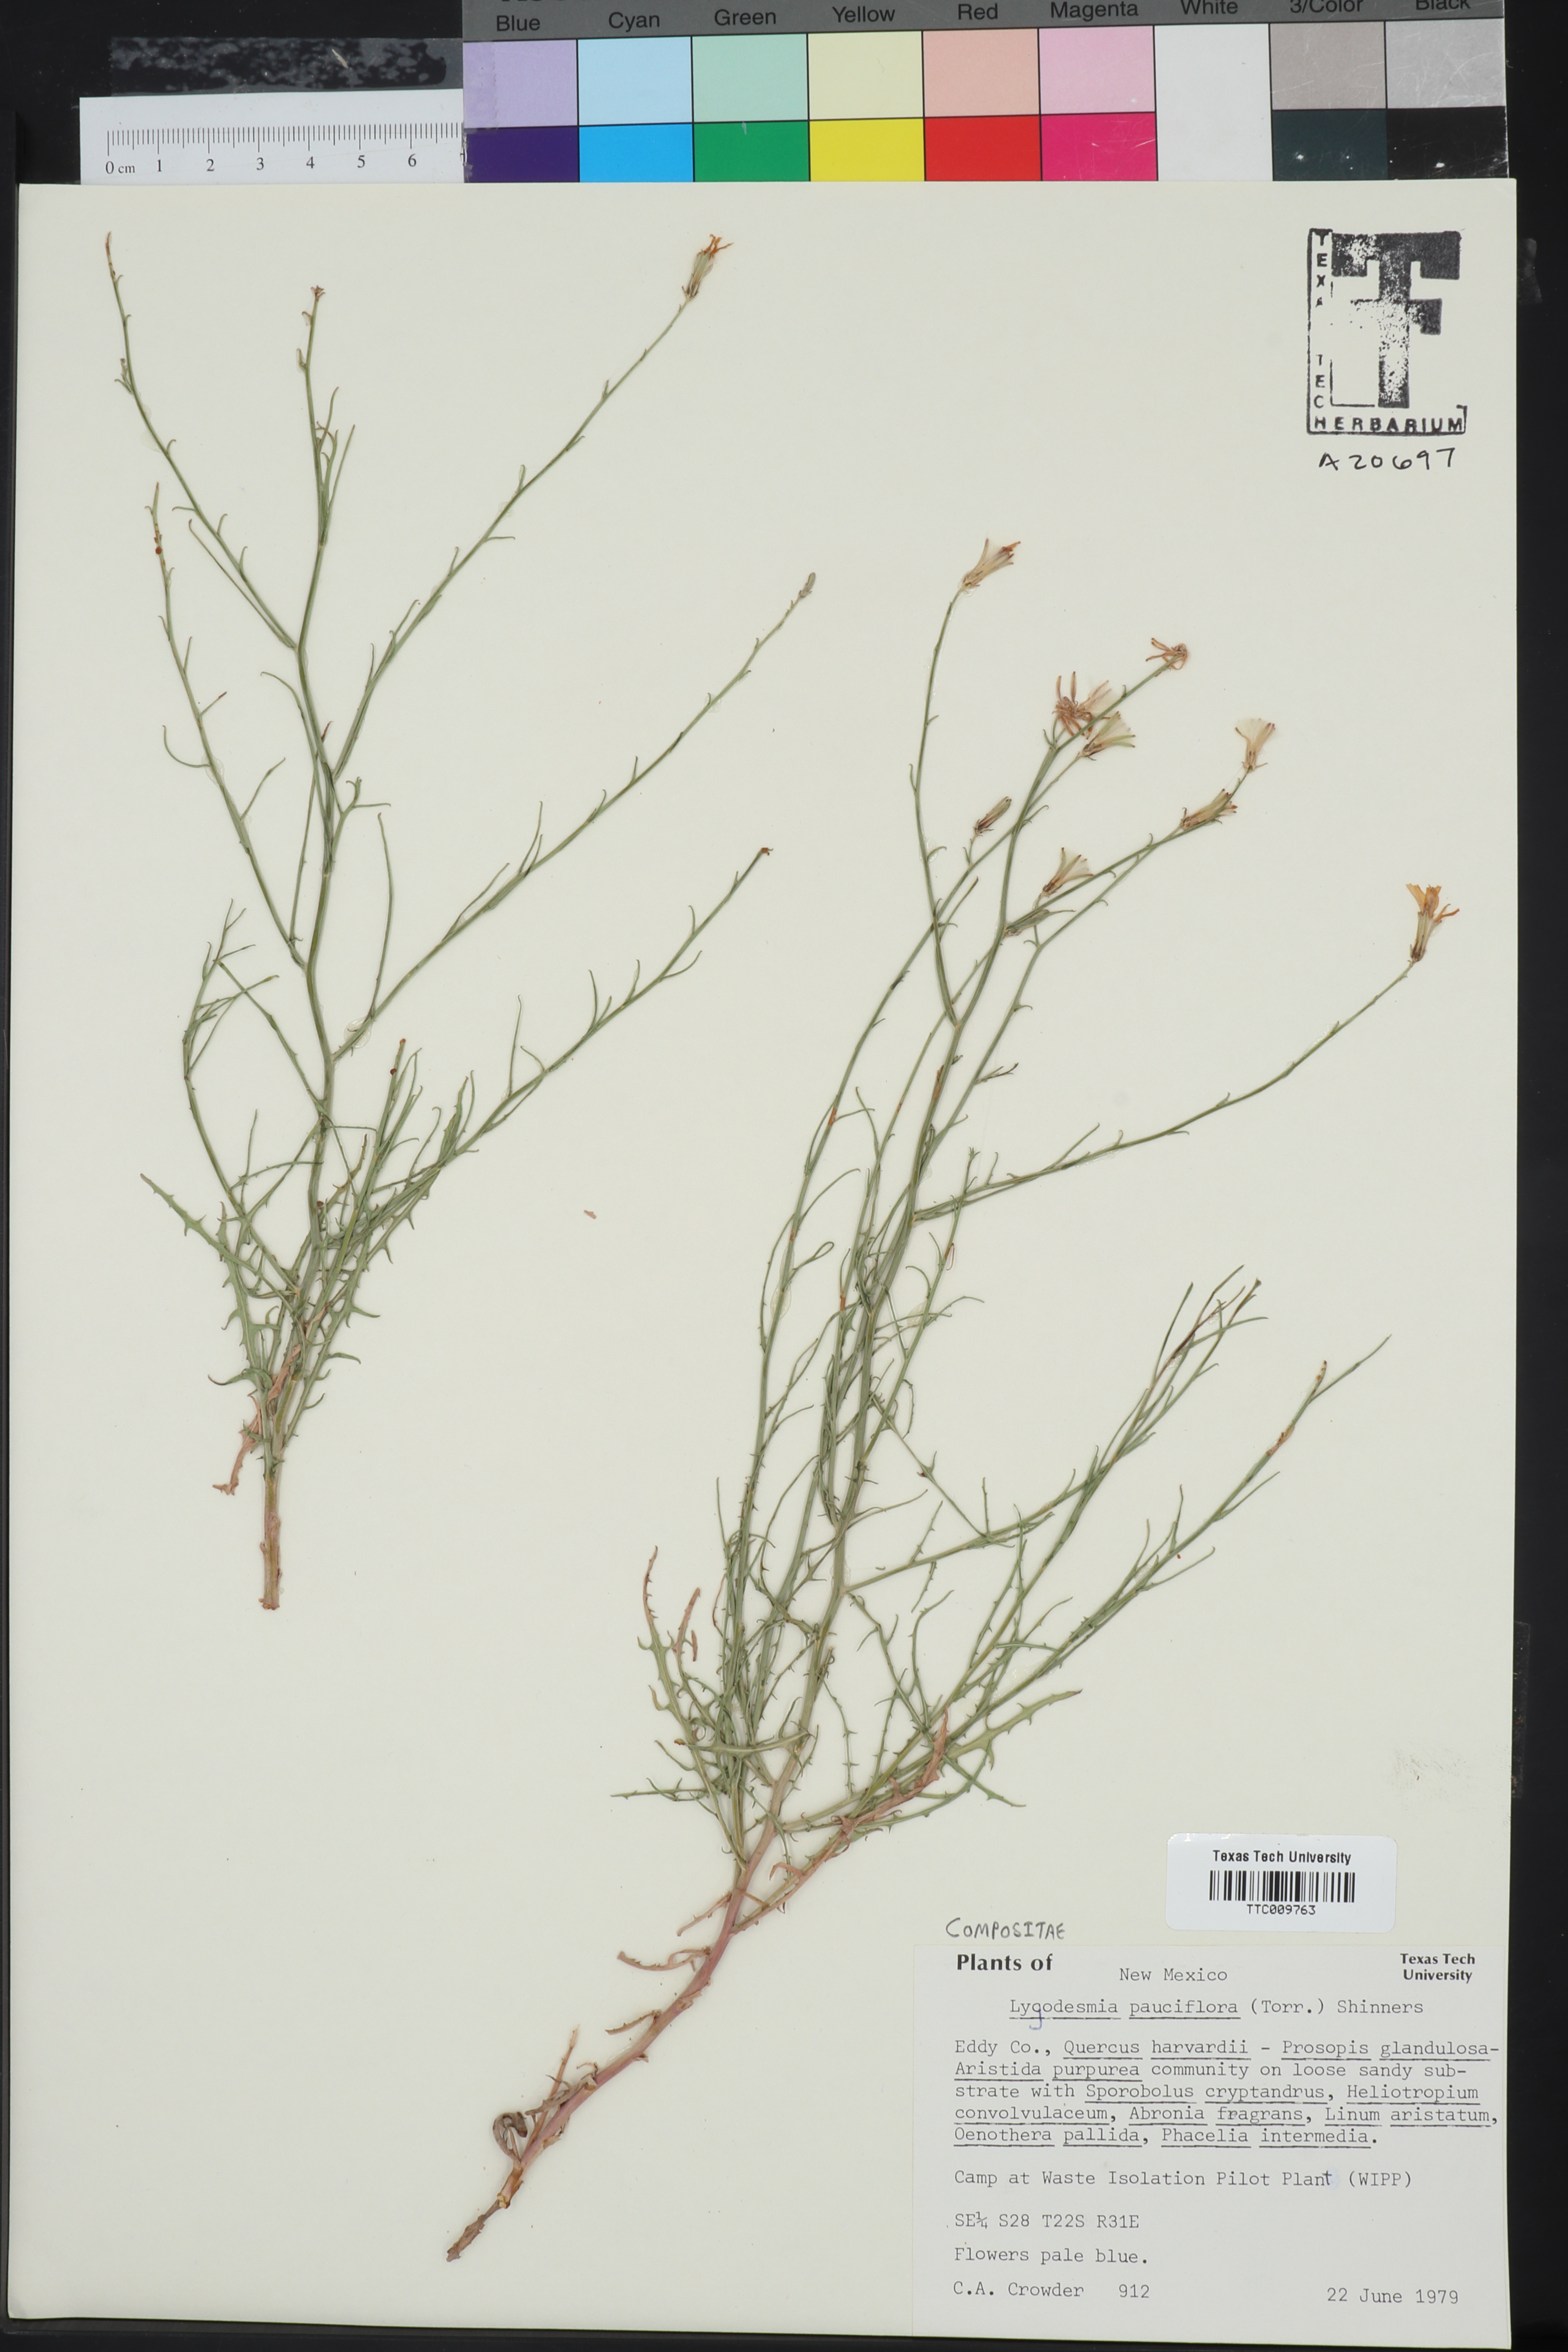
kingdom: Plantae
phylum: Tracheophyta
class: Magnoliopsida
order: Asterales
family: Asteraceae
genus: Stephanomeria
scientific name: Stephanomeria pauciflora
